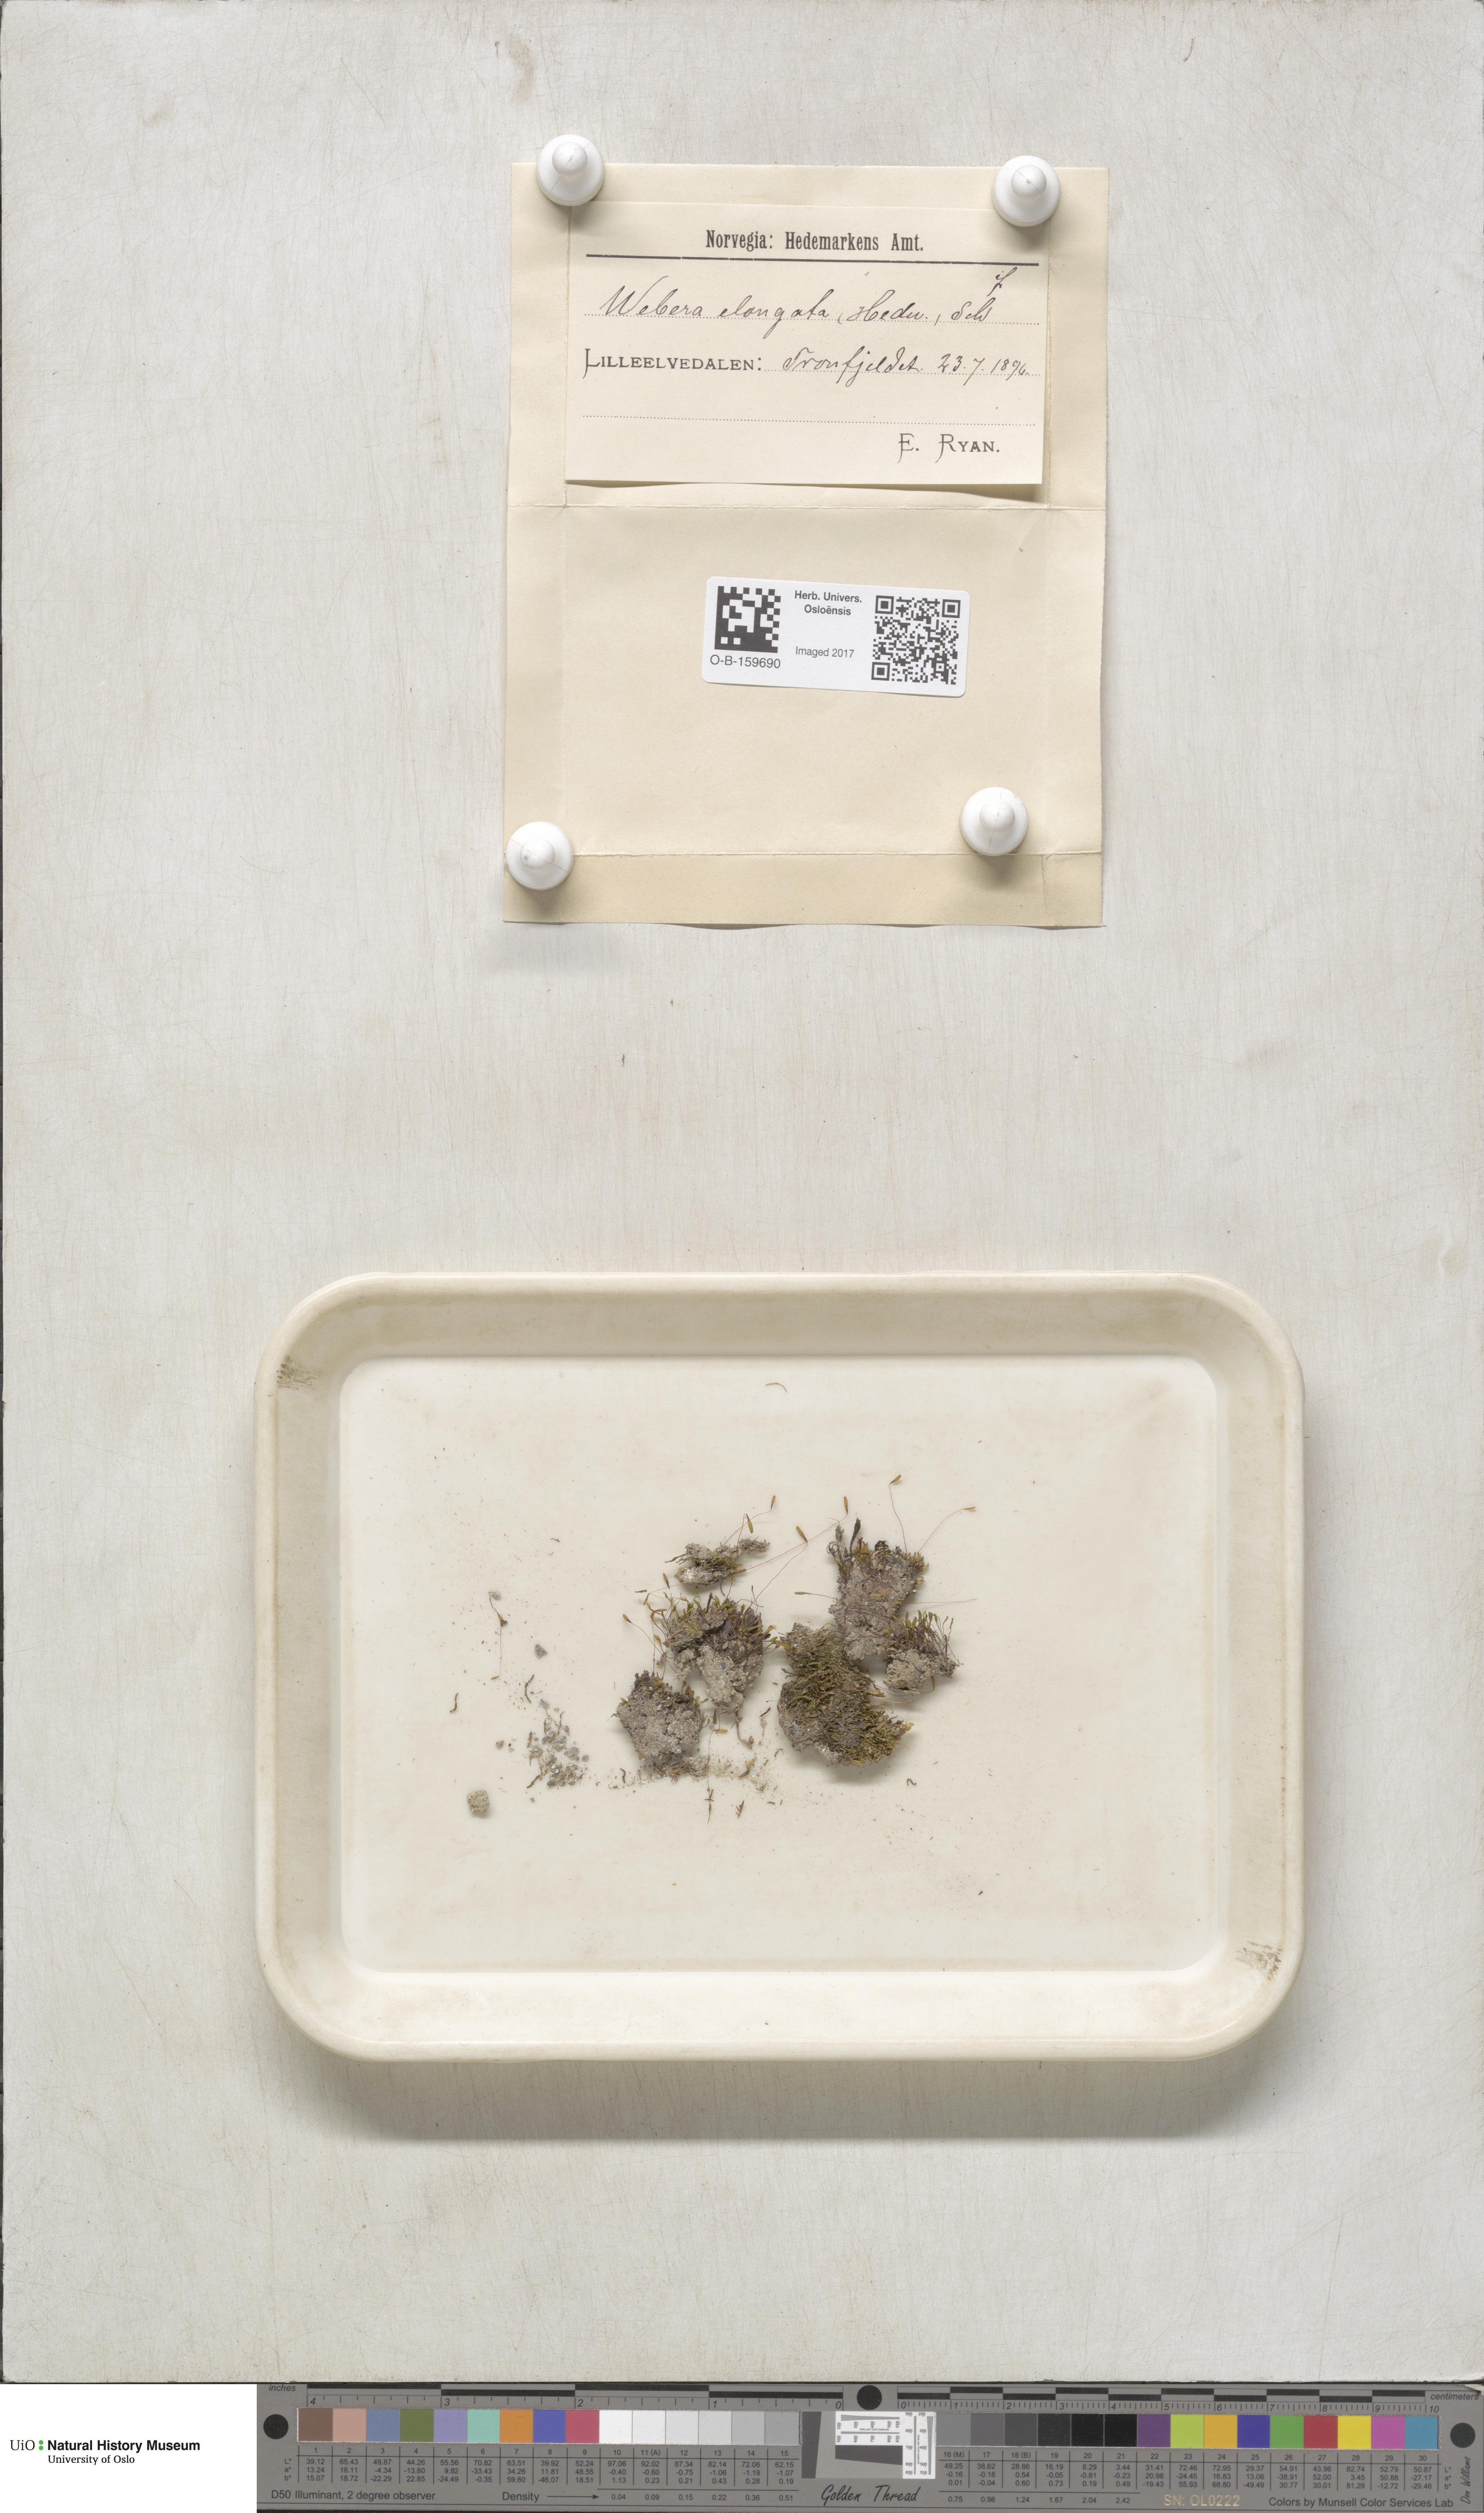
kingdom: Plantae
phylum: Bryophyta
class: Bryopsida
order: Bryales
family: Mniaceae
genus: Pohlia
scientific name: Pohlia elongata
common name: Long-fruited thread-moss
